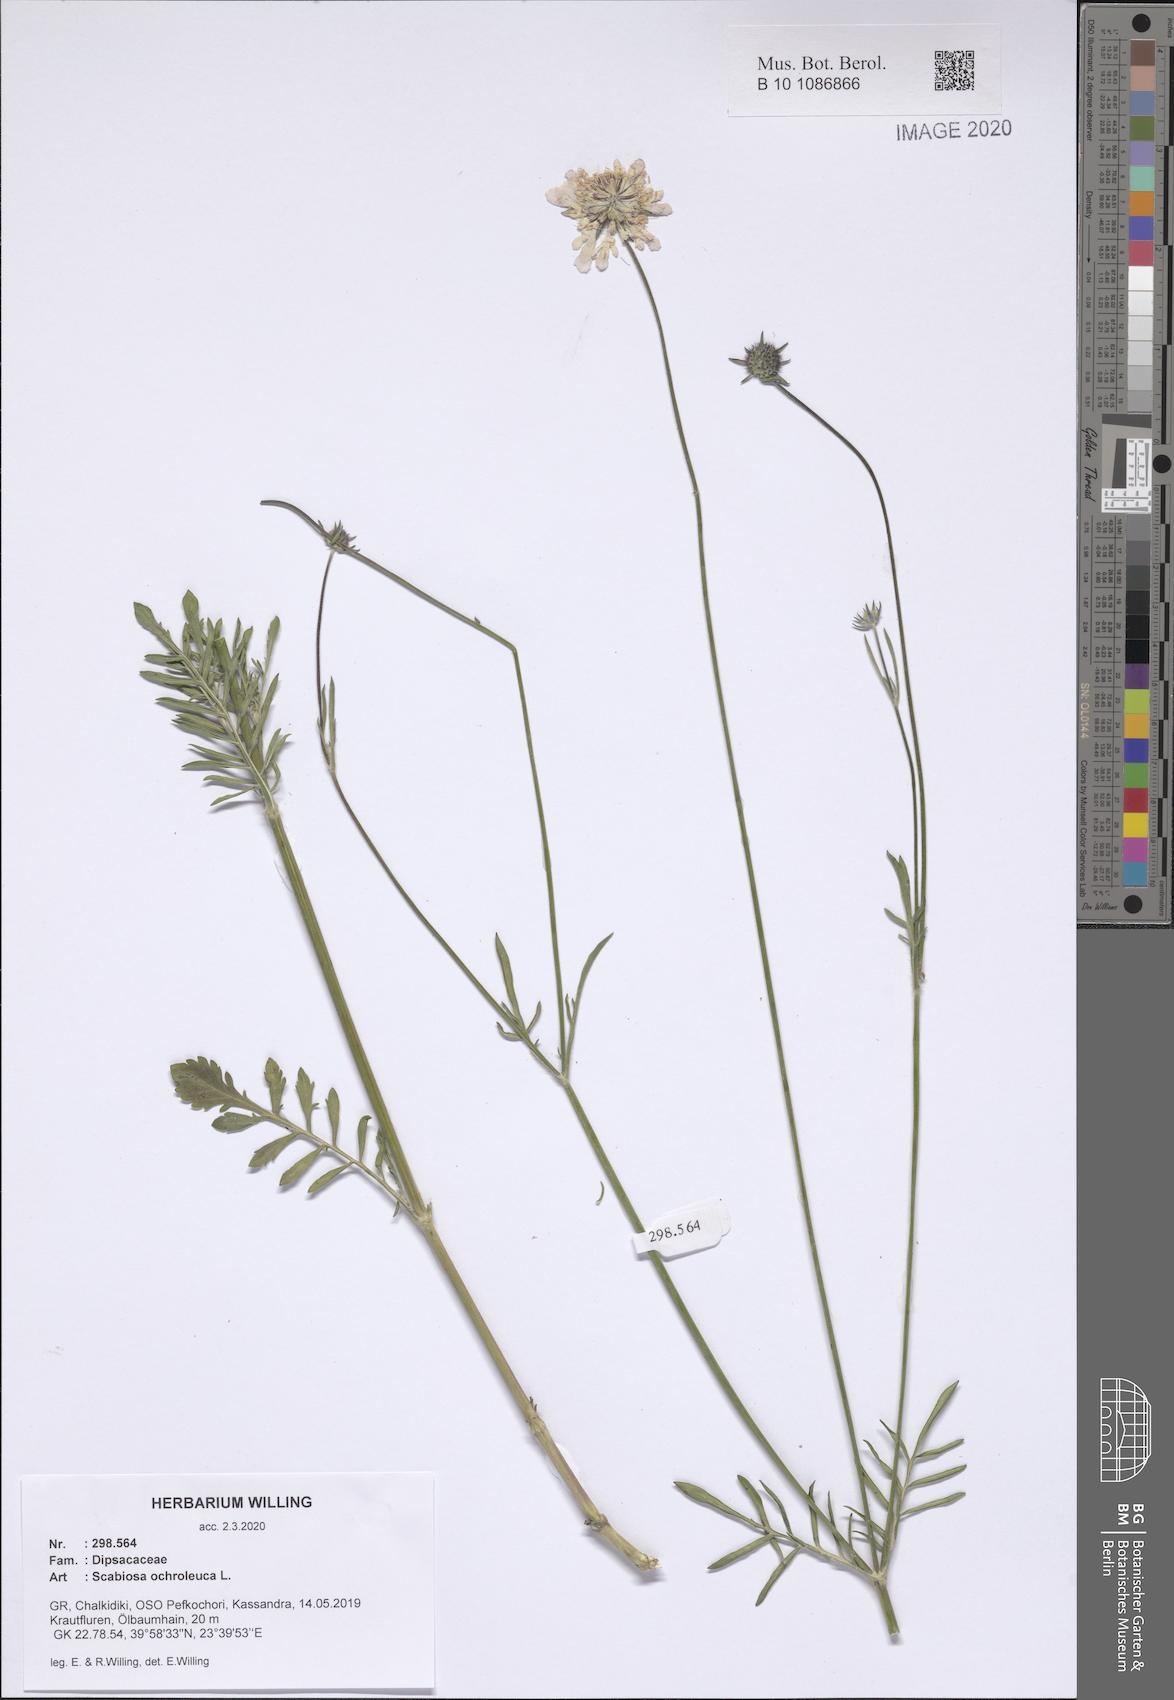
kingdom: Plantae
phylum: Tracheophyta
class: Magnoliopsida
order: Dipsacales
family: Caprifoliaceae
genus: Scabiosa
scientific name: Scabiosa ochroleuca
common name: Cream pincushions
